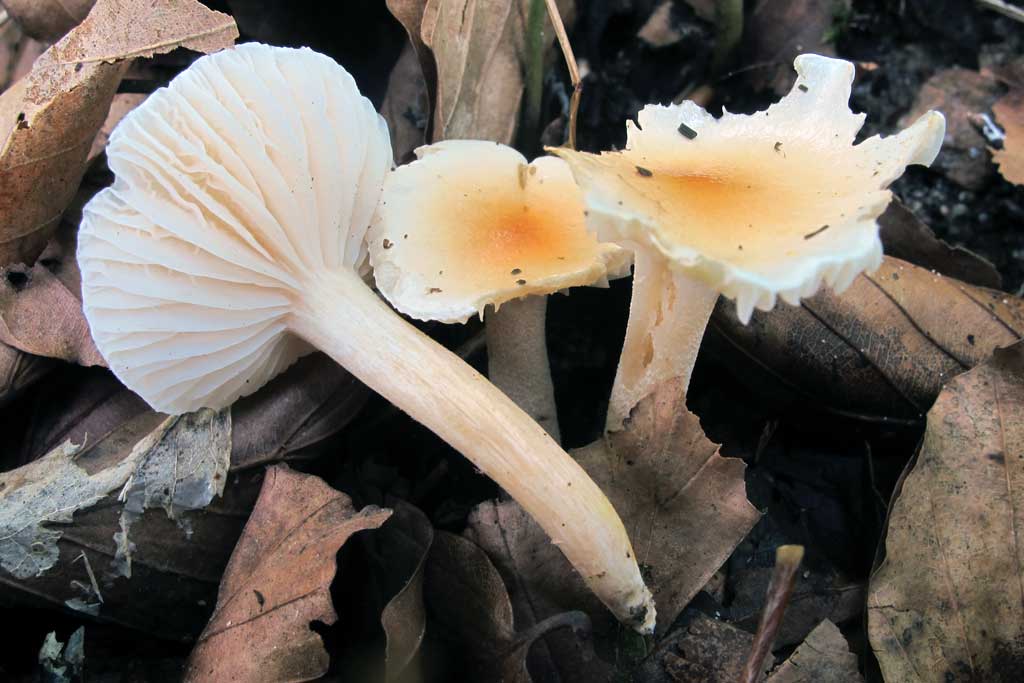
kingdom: Fungi
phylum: Basidiomycota
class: Agaricomycetes
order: Agaricales
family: Hygrophoraceae
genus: Hygrophorus
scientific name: Hygrophorus unicolor
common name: orangeøjet sneglehat
